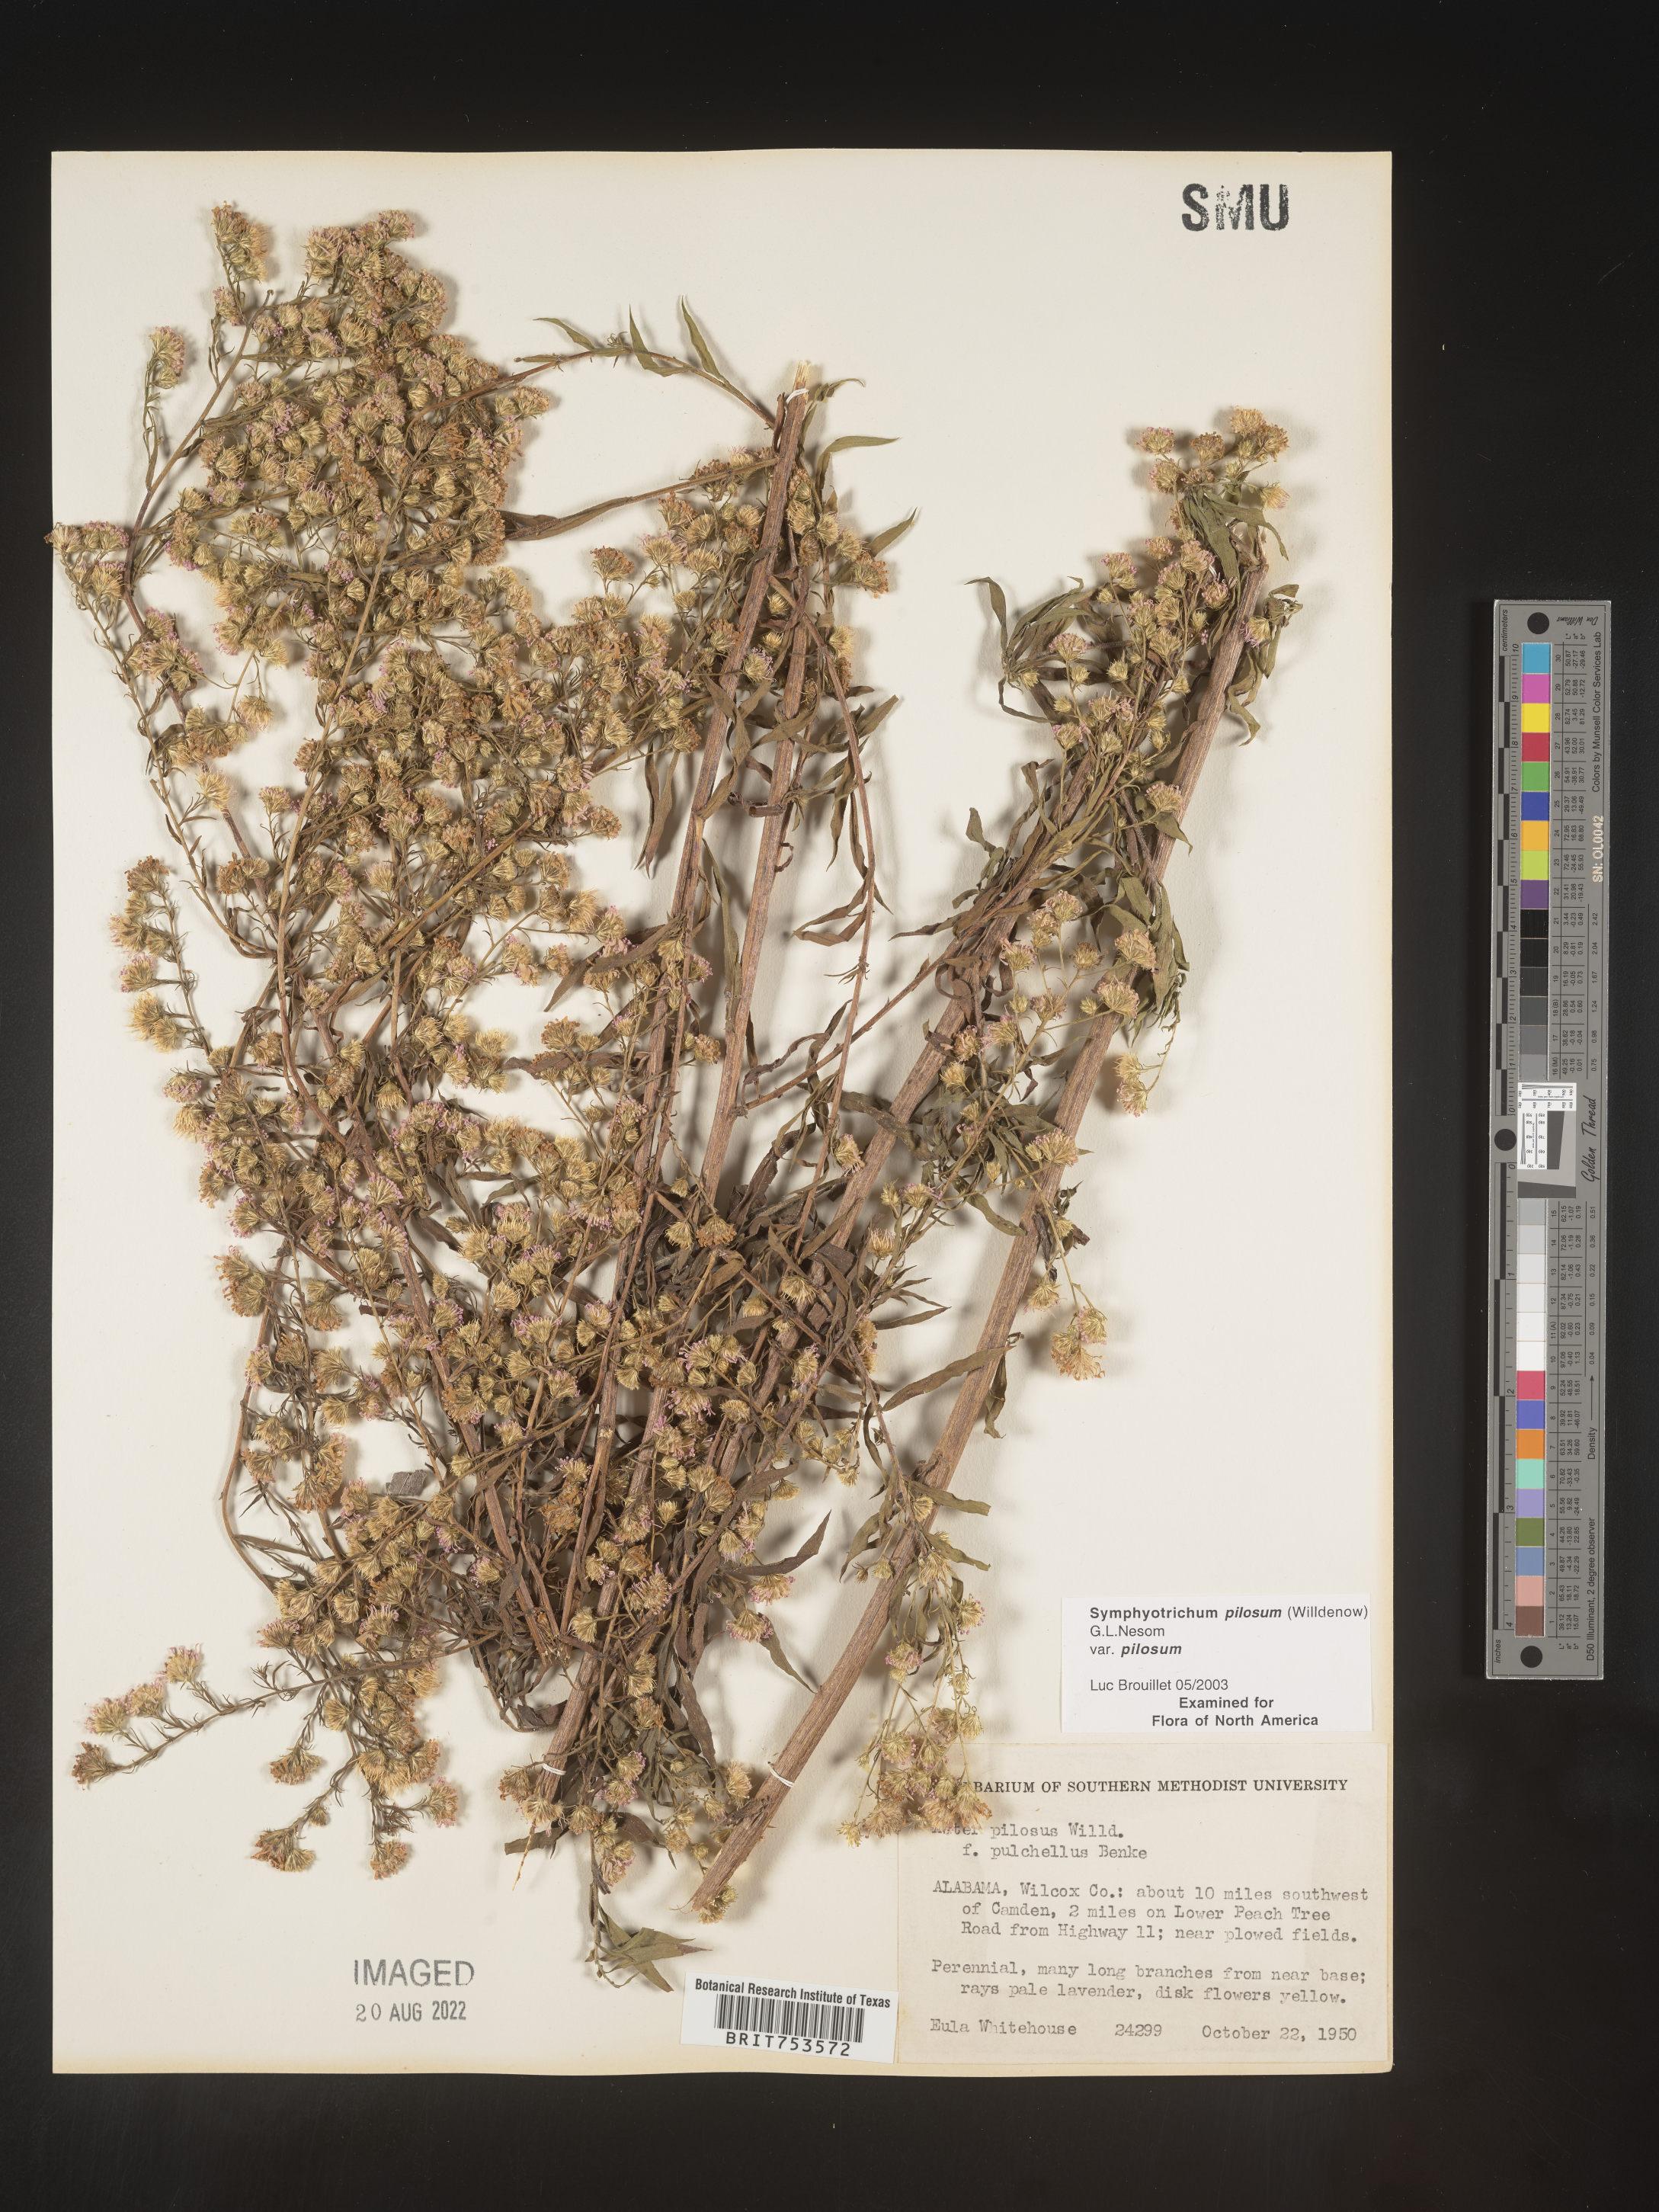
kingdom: Plantae
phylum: Tracheophyta
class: Magnoliopsida
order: Asterales
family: Asteraceae
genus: Symphyotrichum
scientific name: Symphyotrichum pilosum
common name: Awl aster
